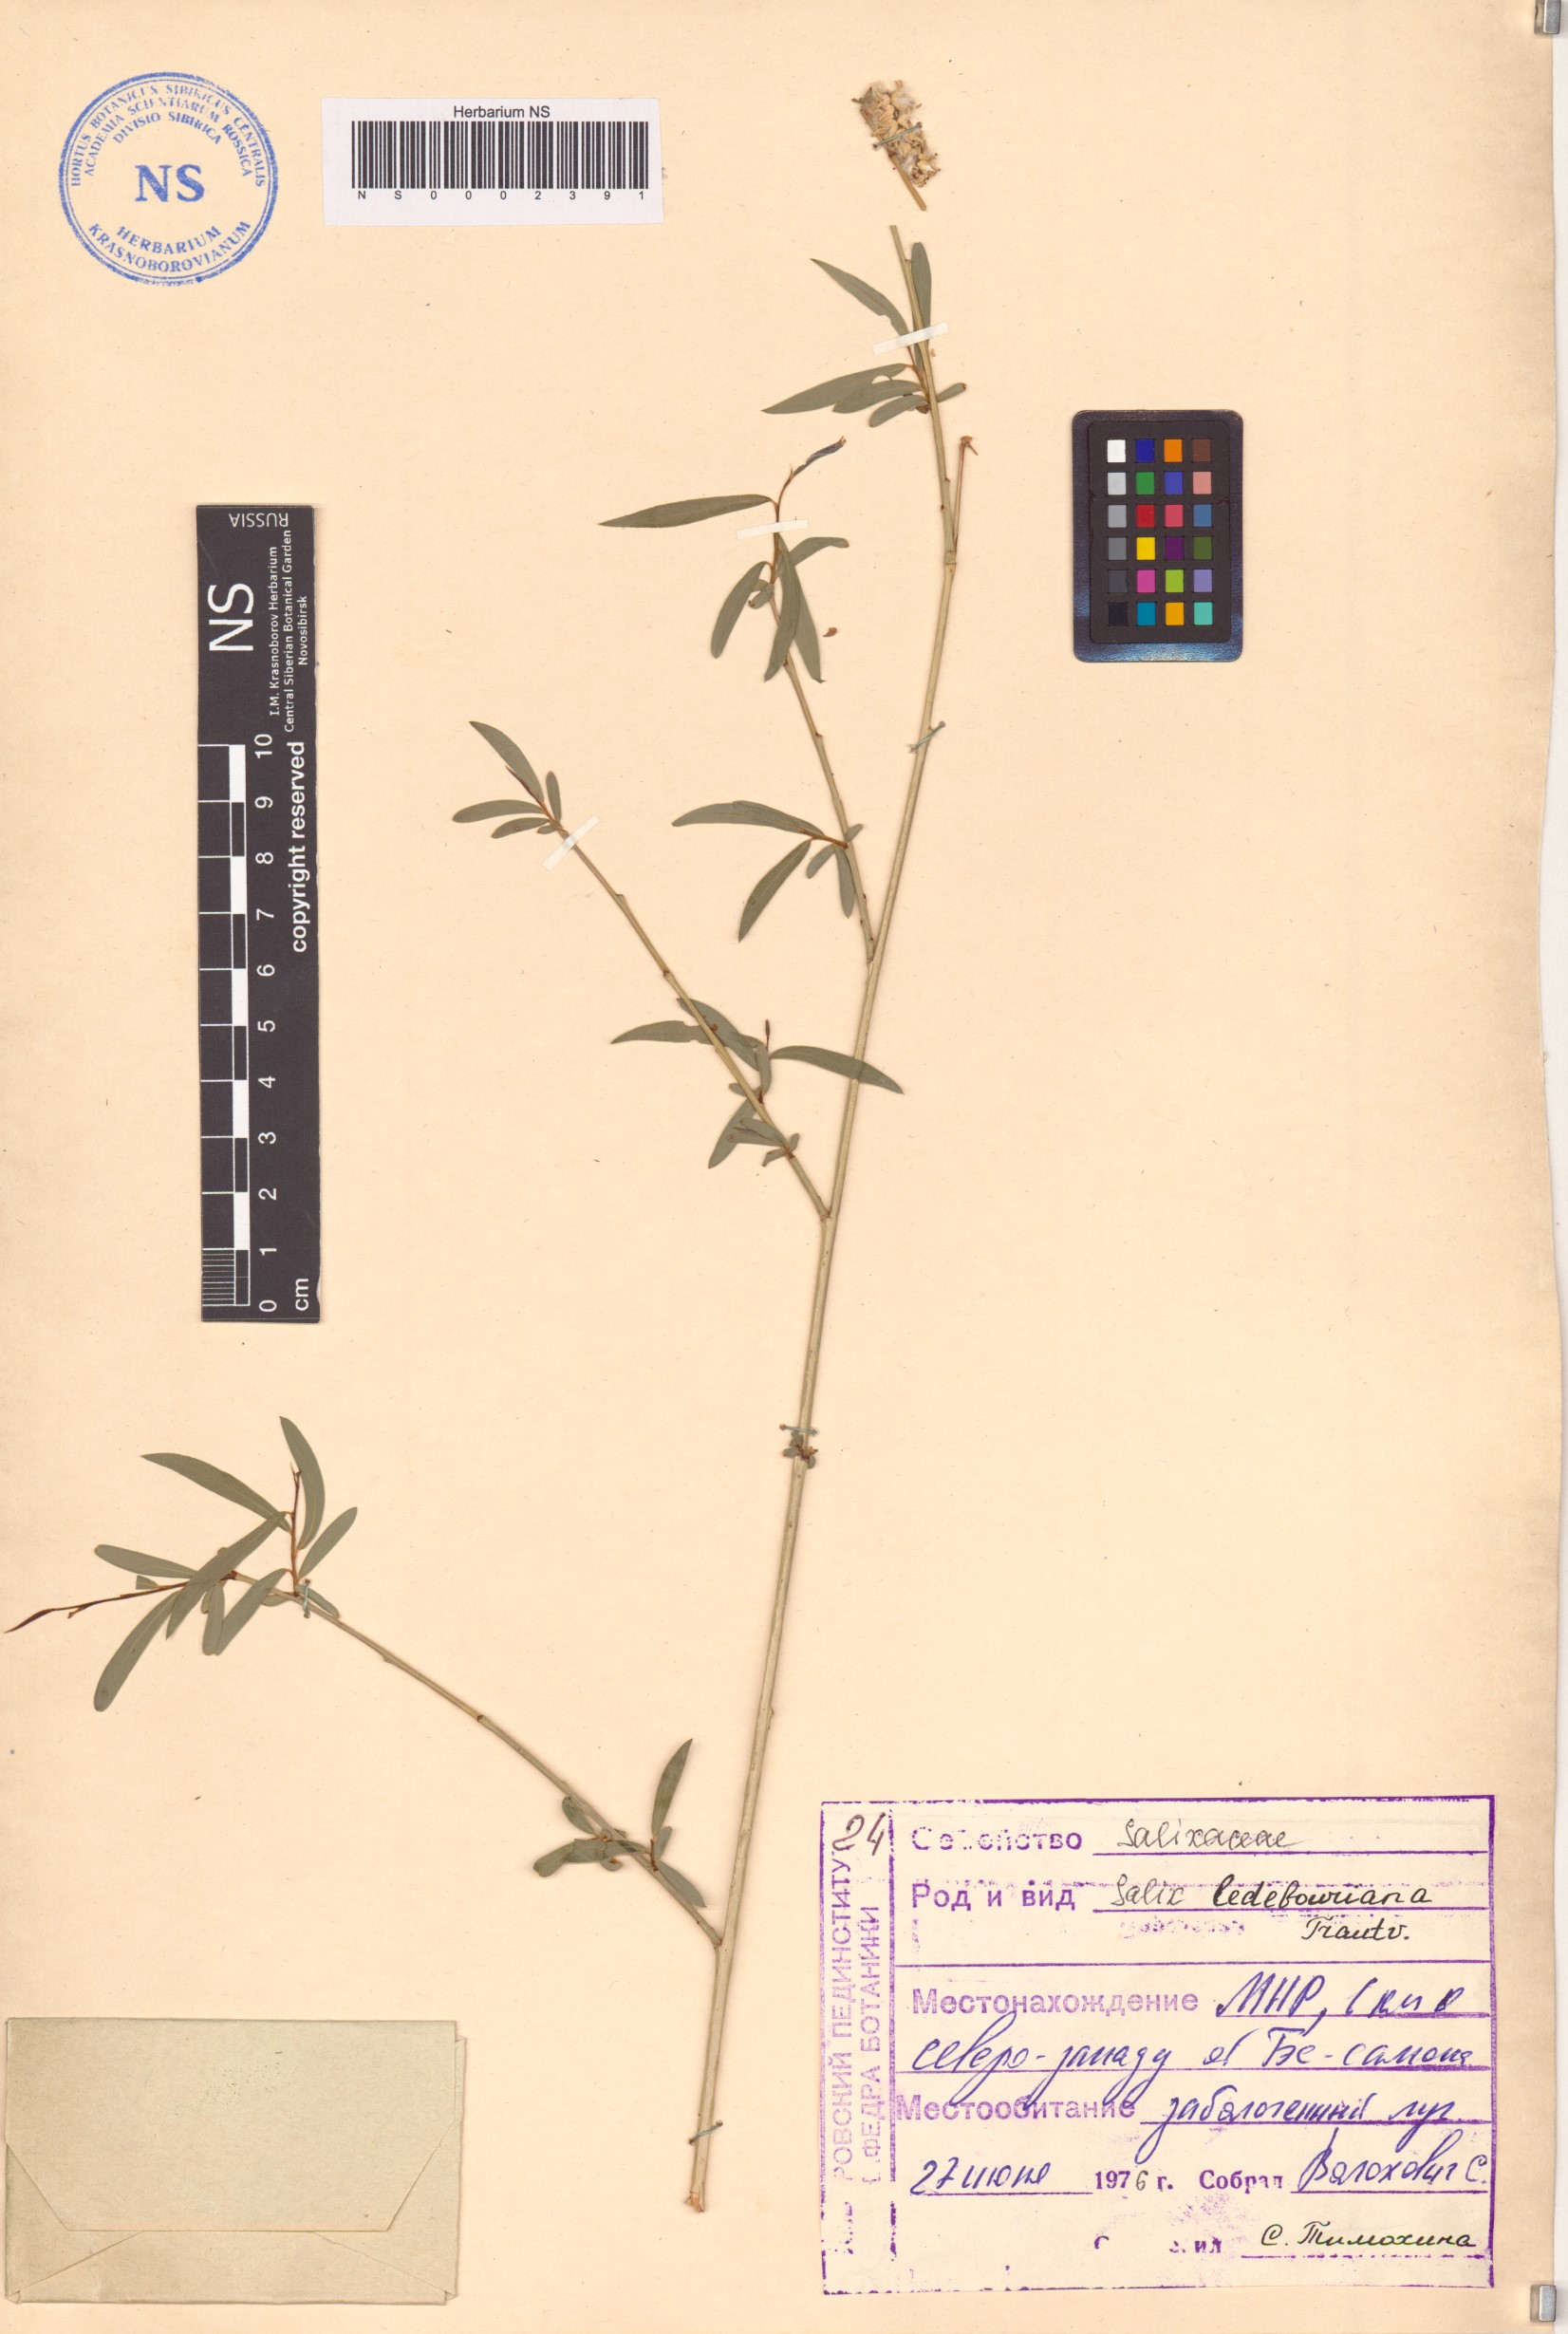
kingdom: Plantae
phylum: Tracheophyta
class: Magnoliopsida
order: Malpighiales
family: Salicaceae
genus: Salix
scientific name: Salix ledebouriana
